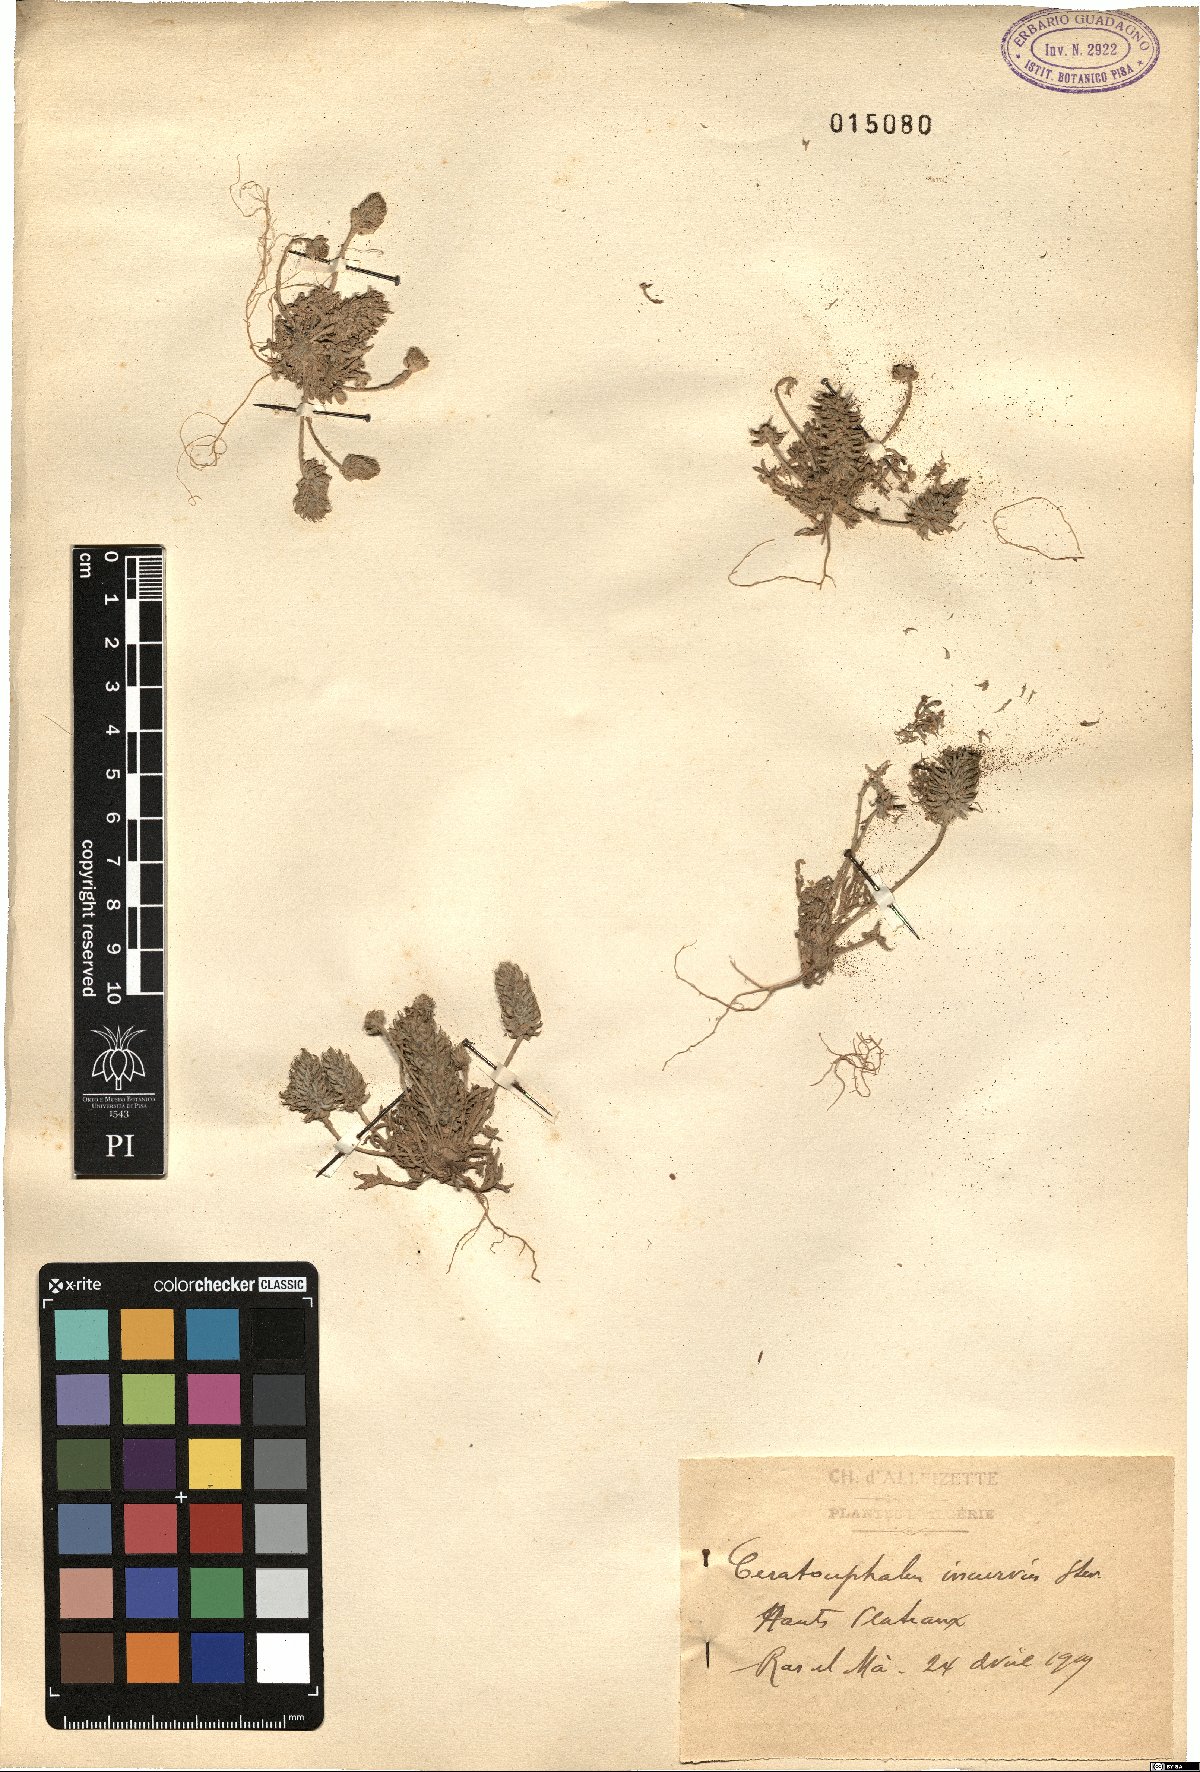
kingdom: Plantae
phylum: Tracheophyta
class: Magnoliopsida
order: Ranunculales
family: Ranunculaceae
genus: Ceratocephala
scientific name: Ceratocephala falcata
